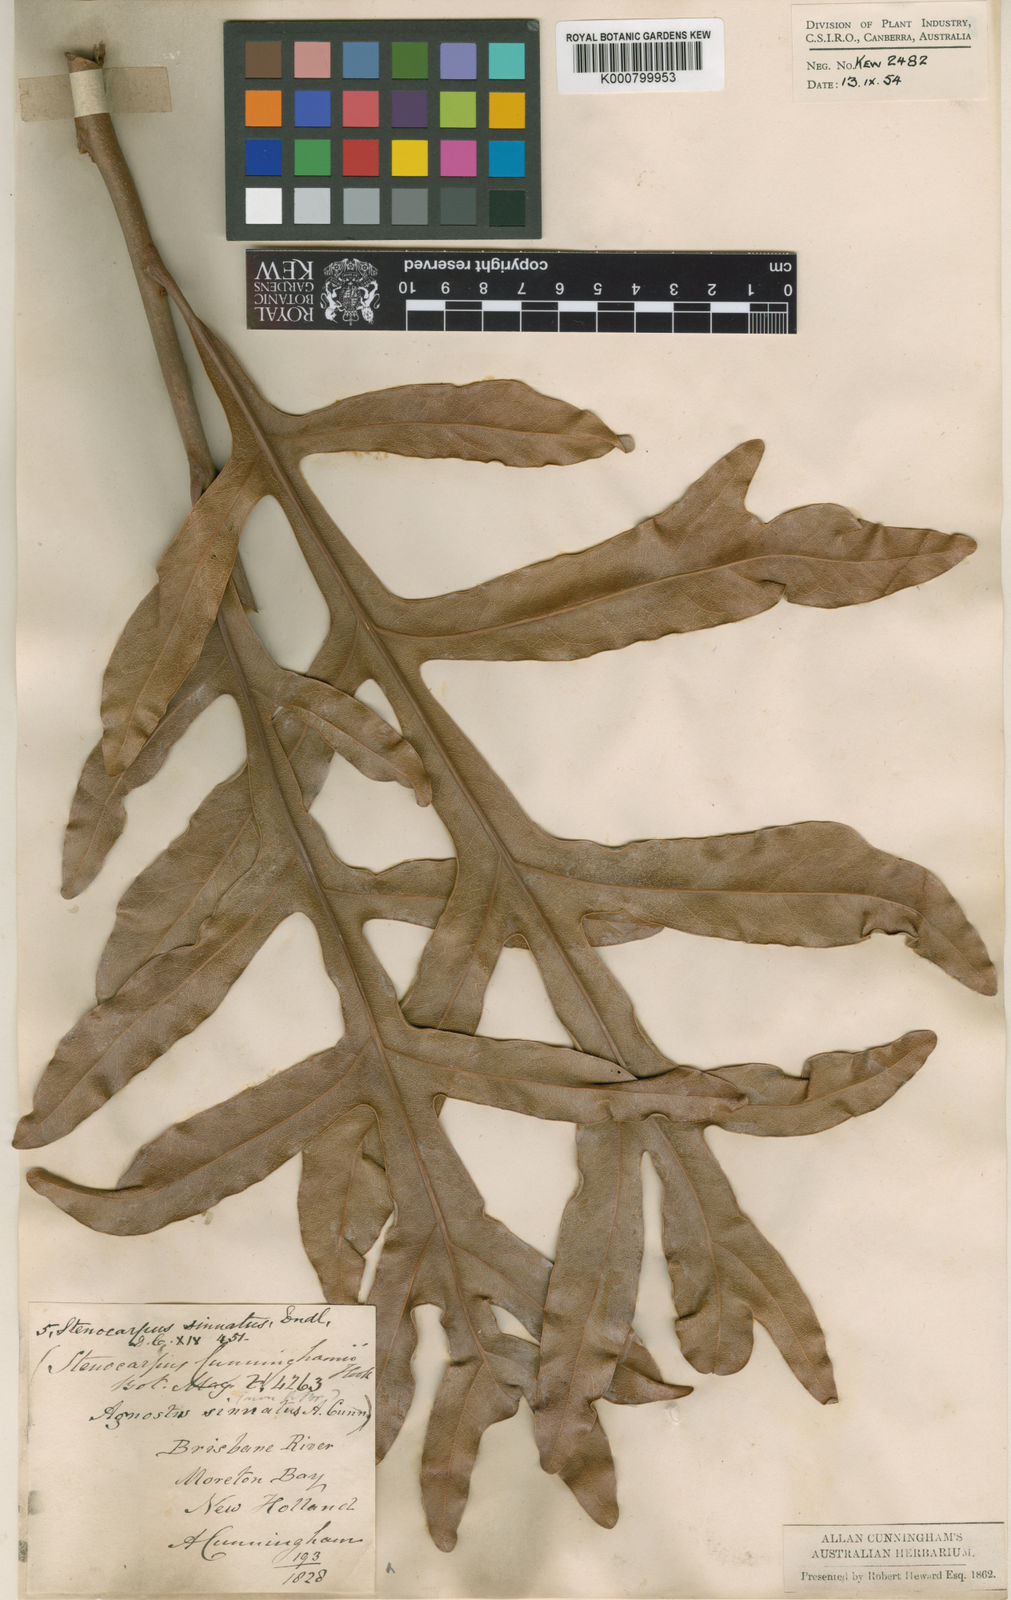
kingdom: Plantae
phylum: Tracheophyta
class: Magnoliopsida
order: Proteales
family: Proteaceae
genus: Stenocarpus
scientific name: Stenocarpus sinuatus
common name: Queensland fire-wheel-tree
